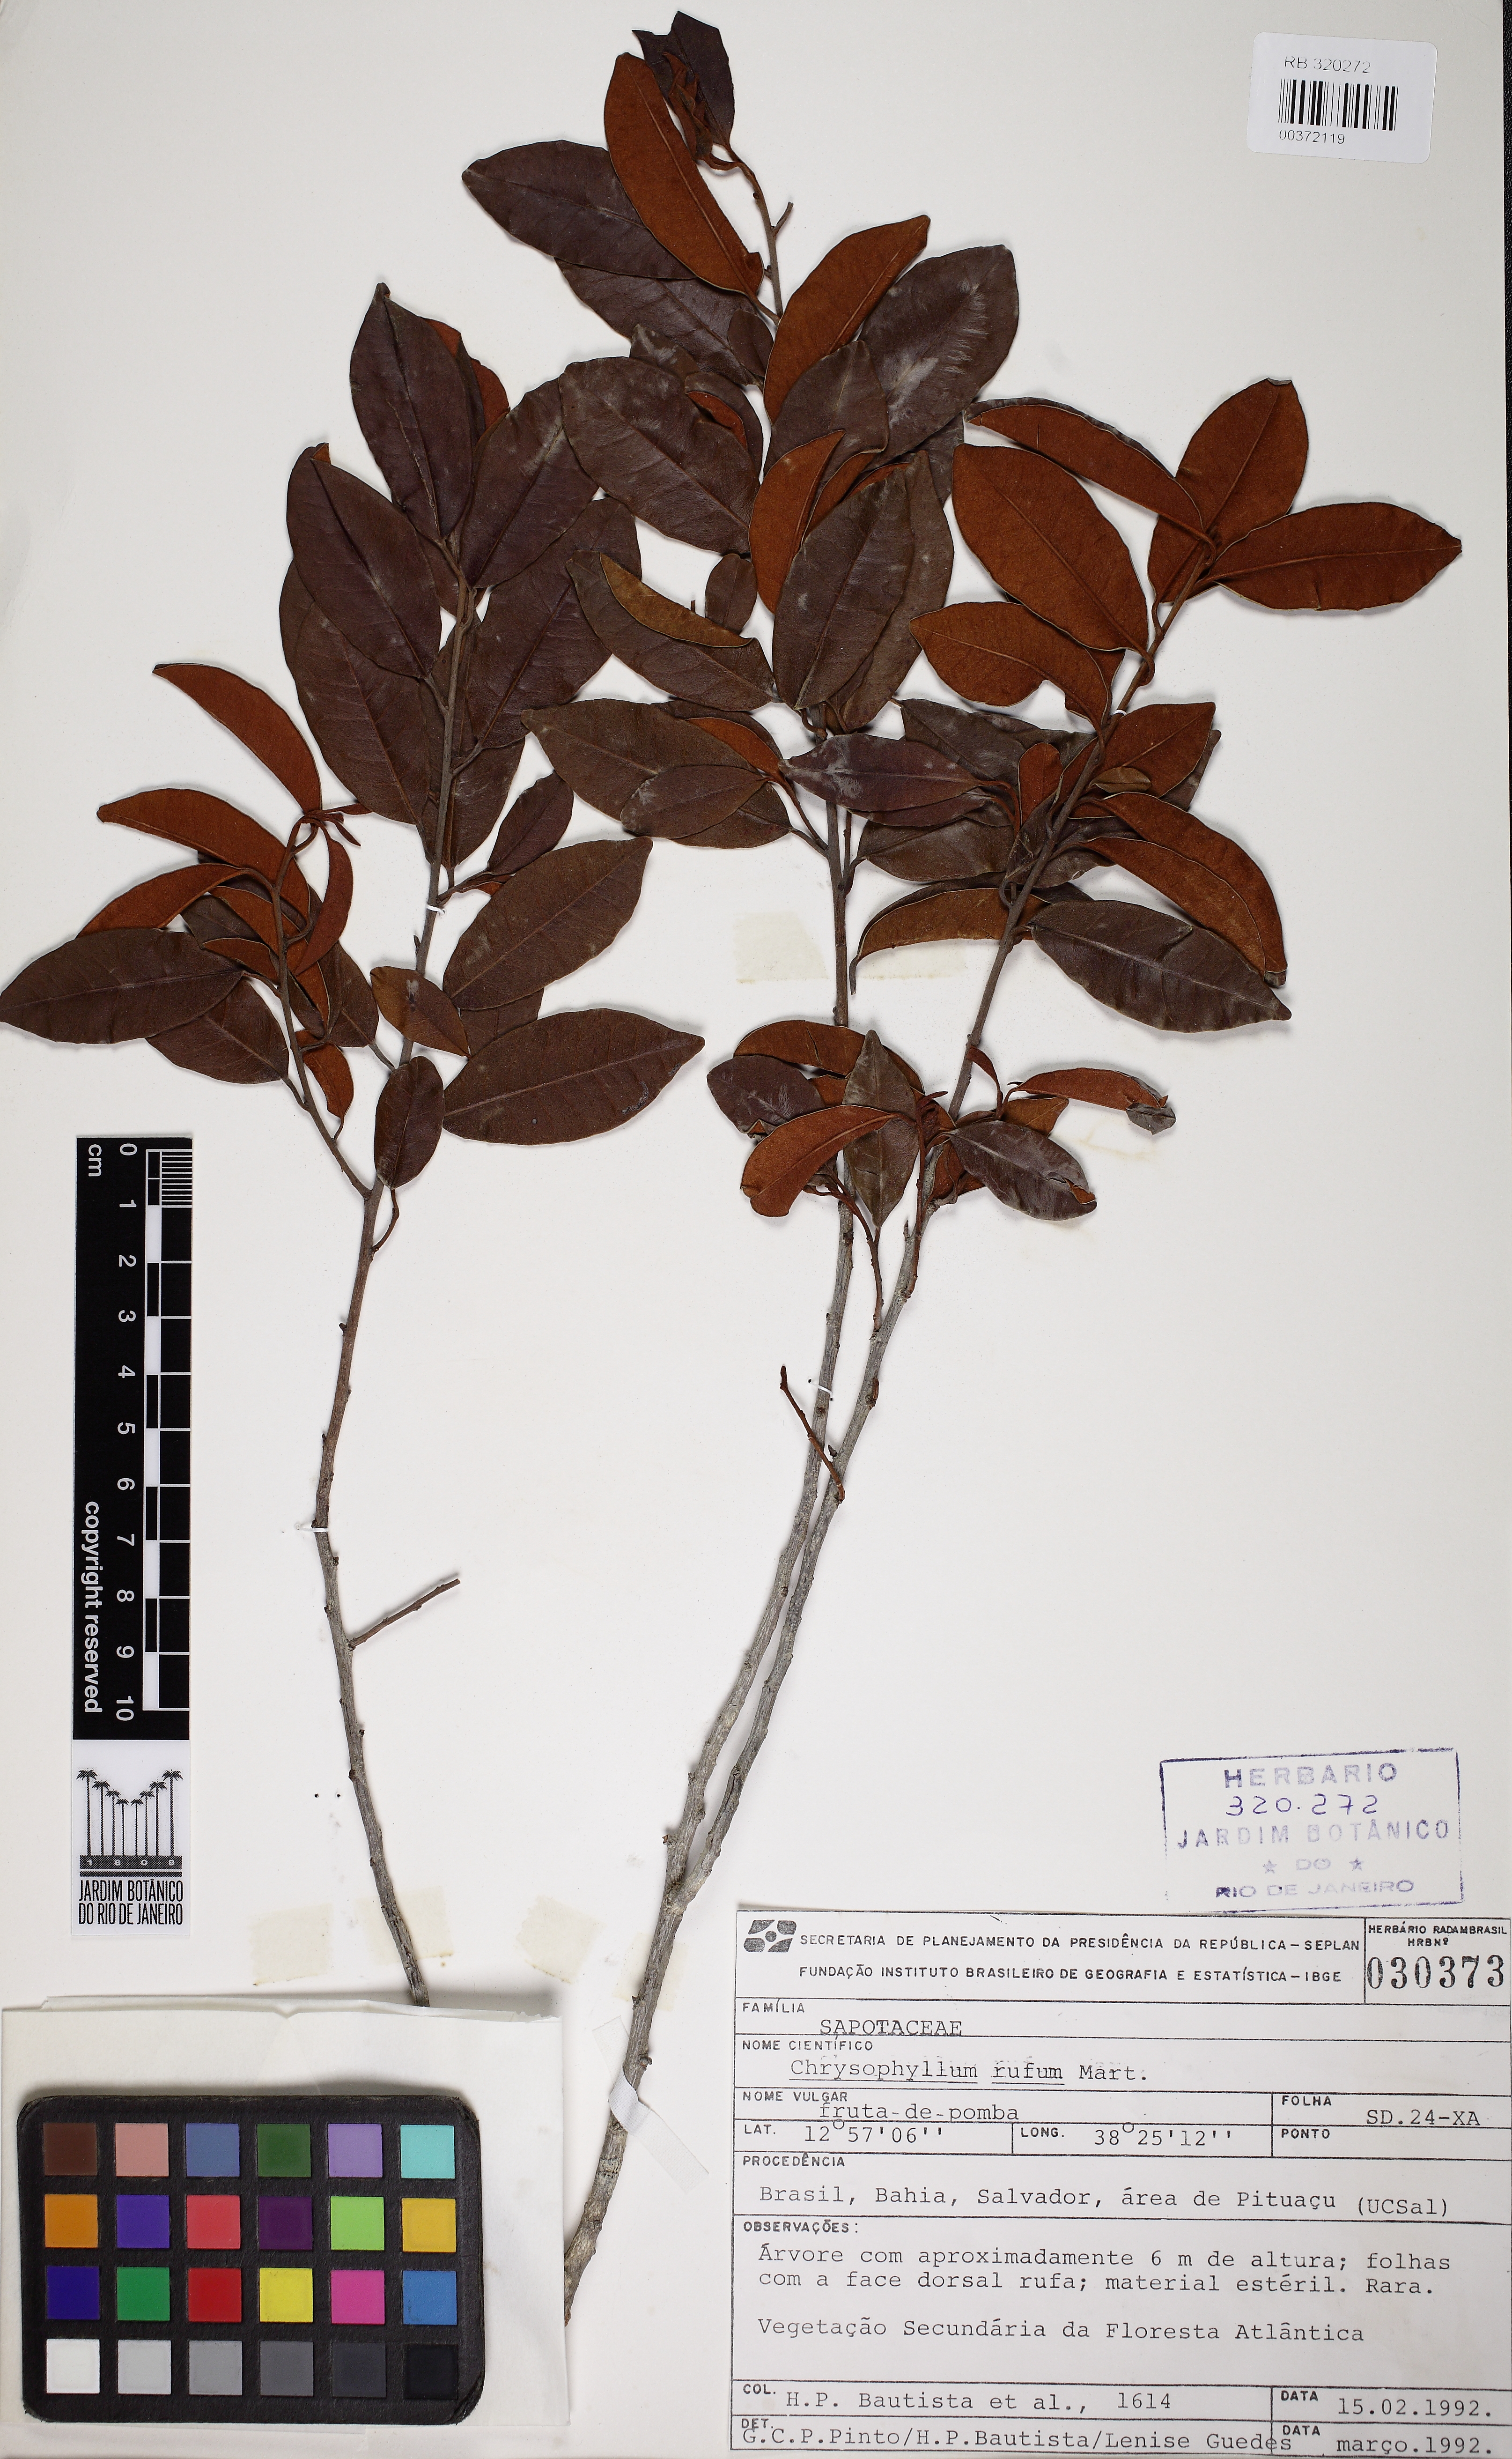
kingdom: Plantae
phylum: Tracheophyta
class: Magnoliopsida
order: Ericales
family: Sapotaceae
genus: Chrysophyllum
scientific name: Chrysophyllum rufum
